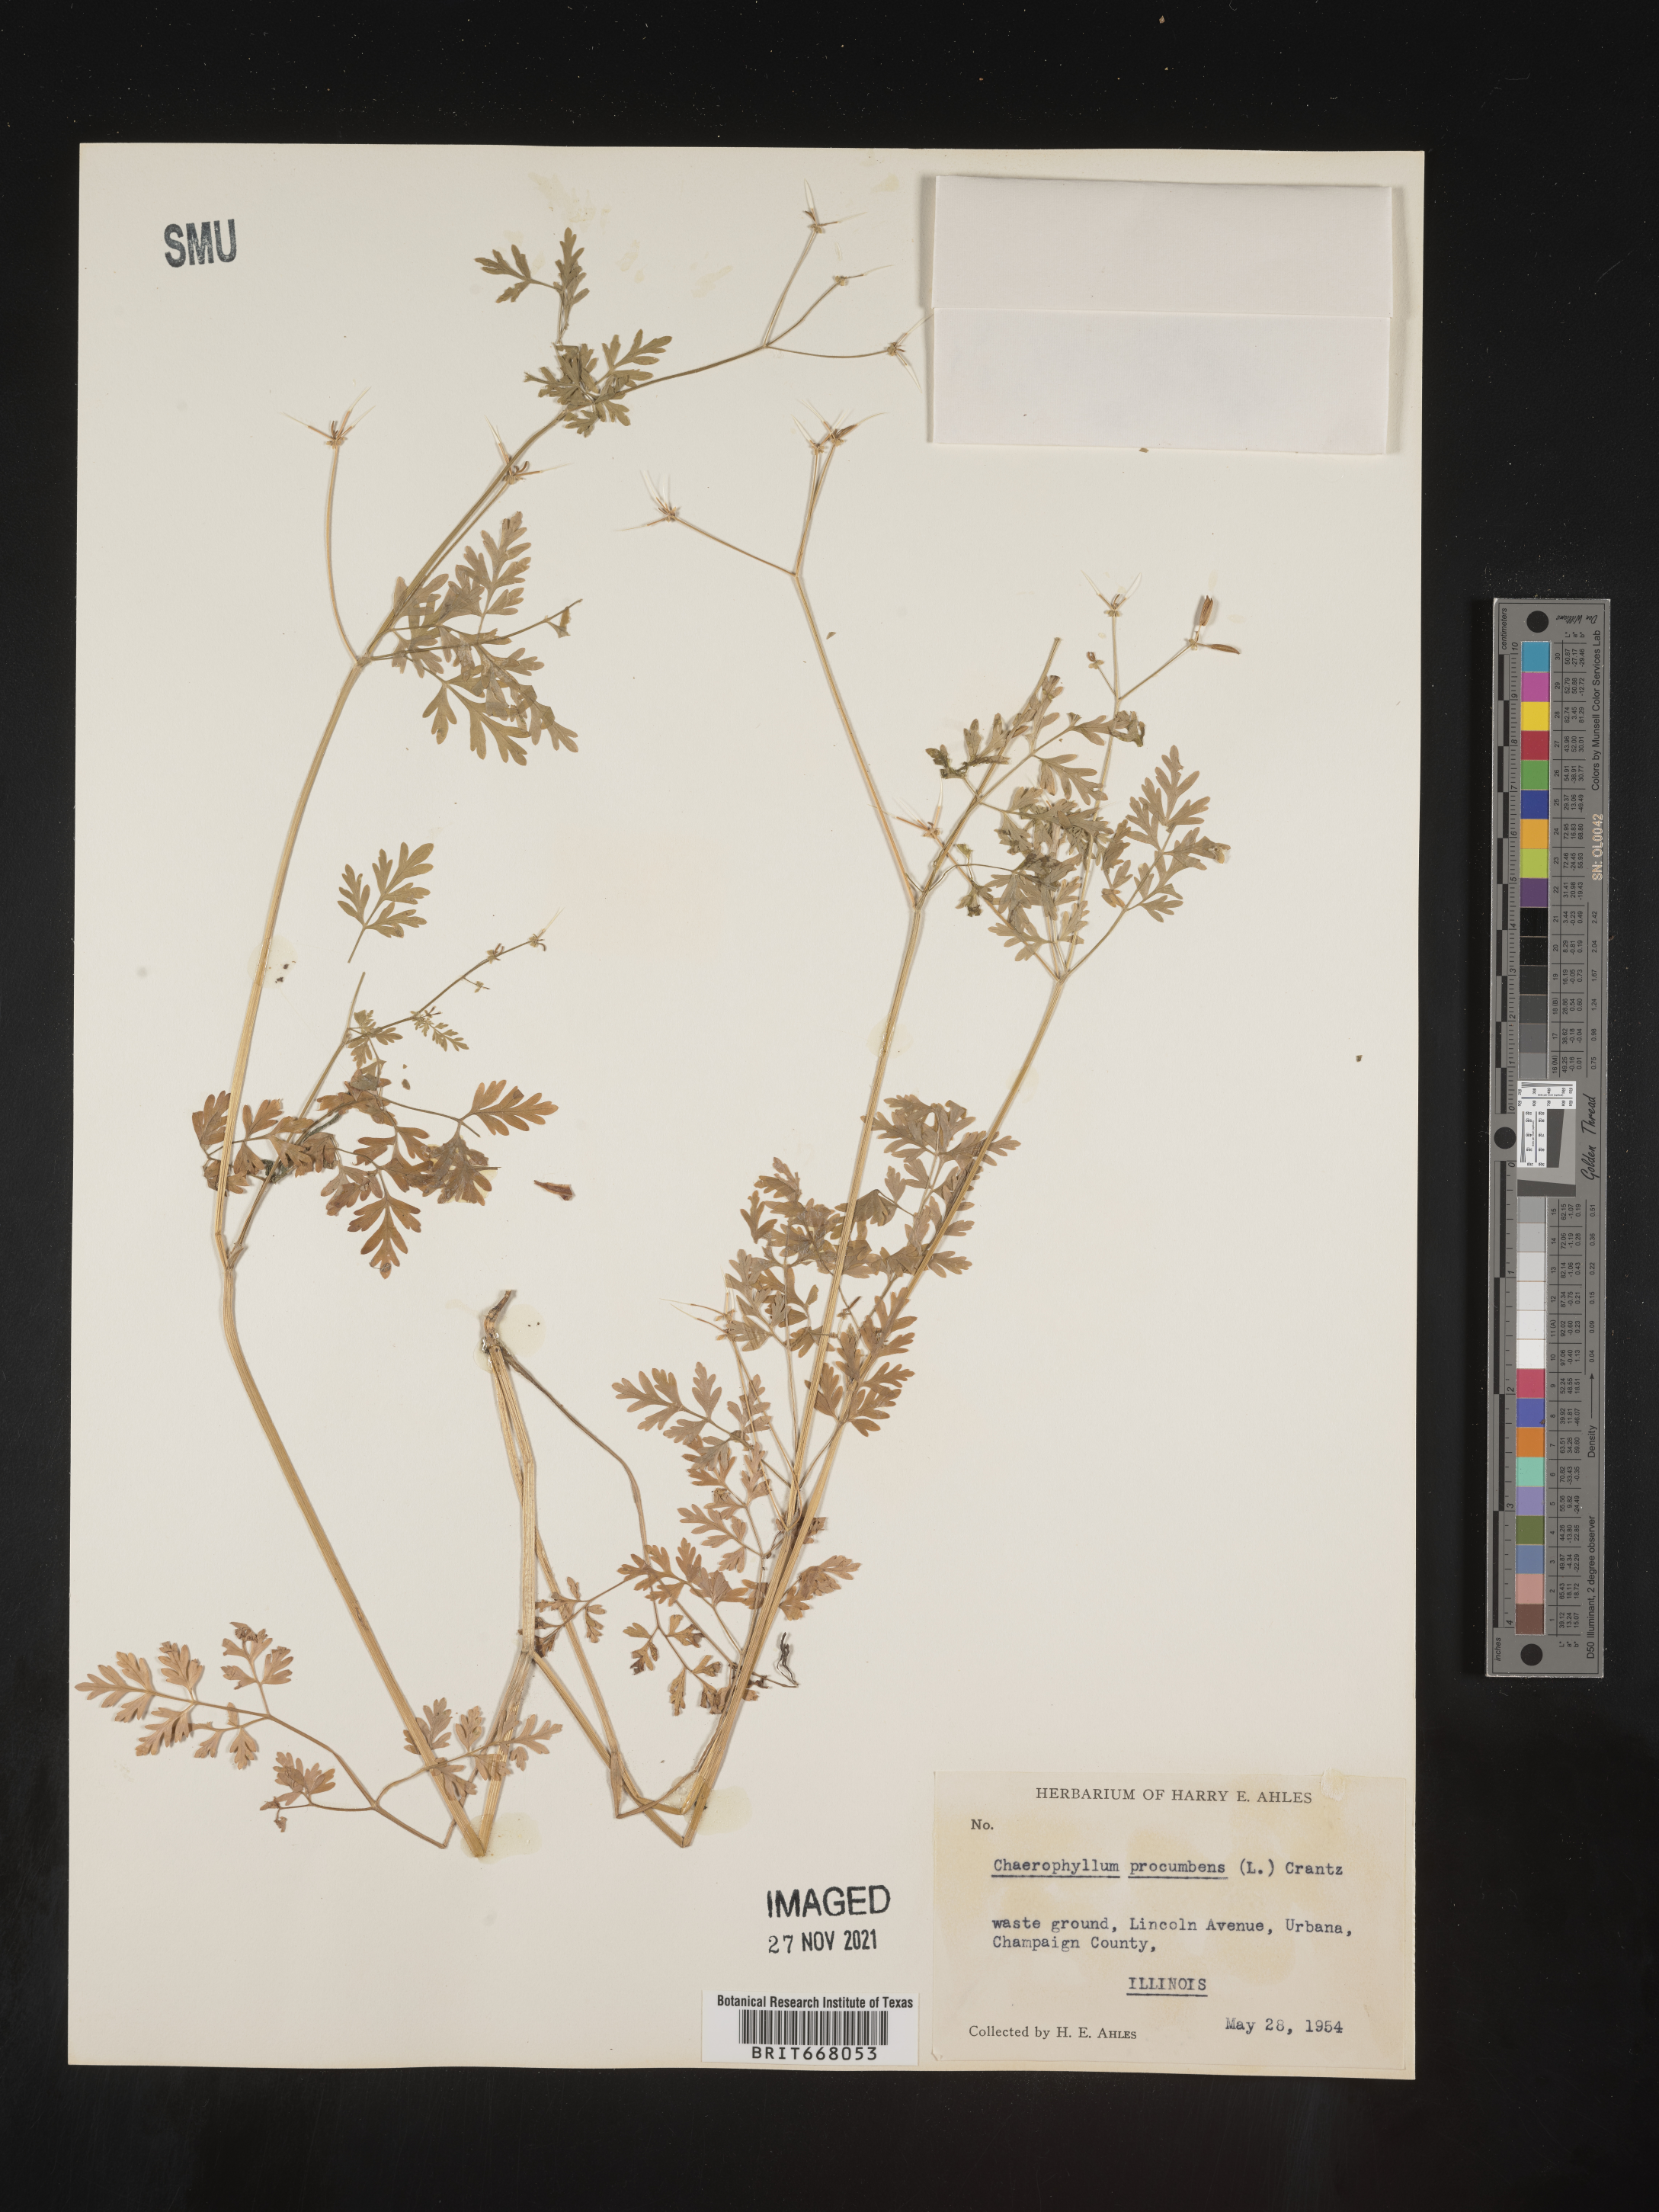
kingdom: Plantae
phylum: Tracheophyta
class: Magnoliopsida
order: Apiales
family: Apiaceae
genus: Chaerophyllum
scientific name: Chaerophyllum procumbens
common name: Spreading chervil
